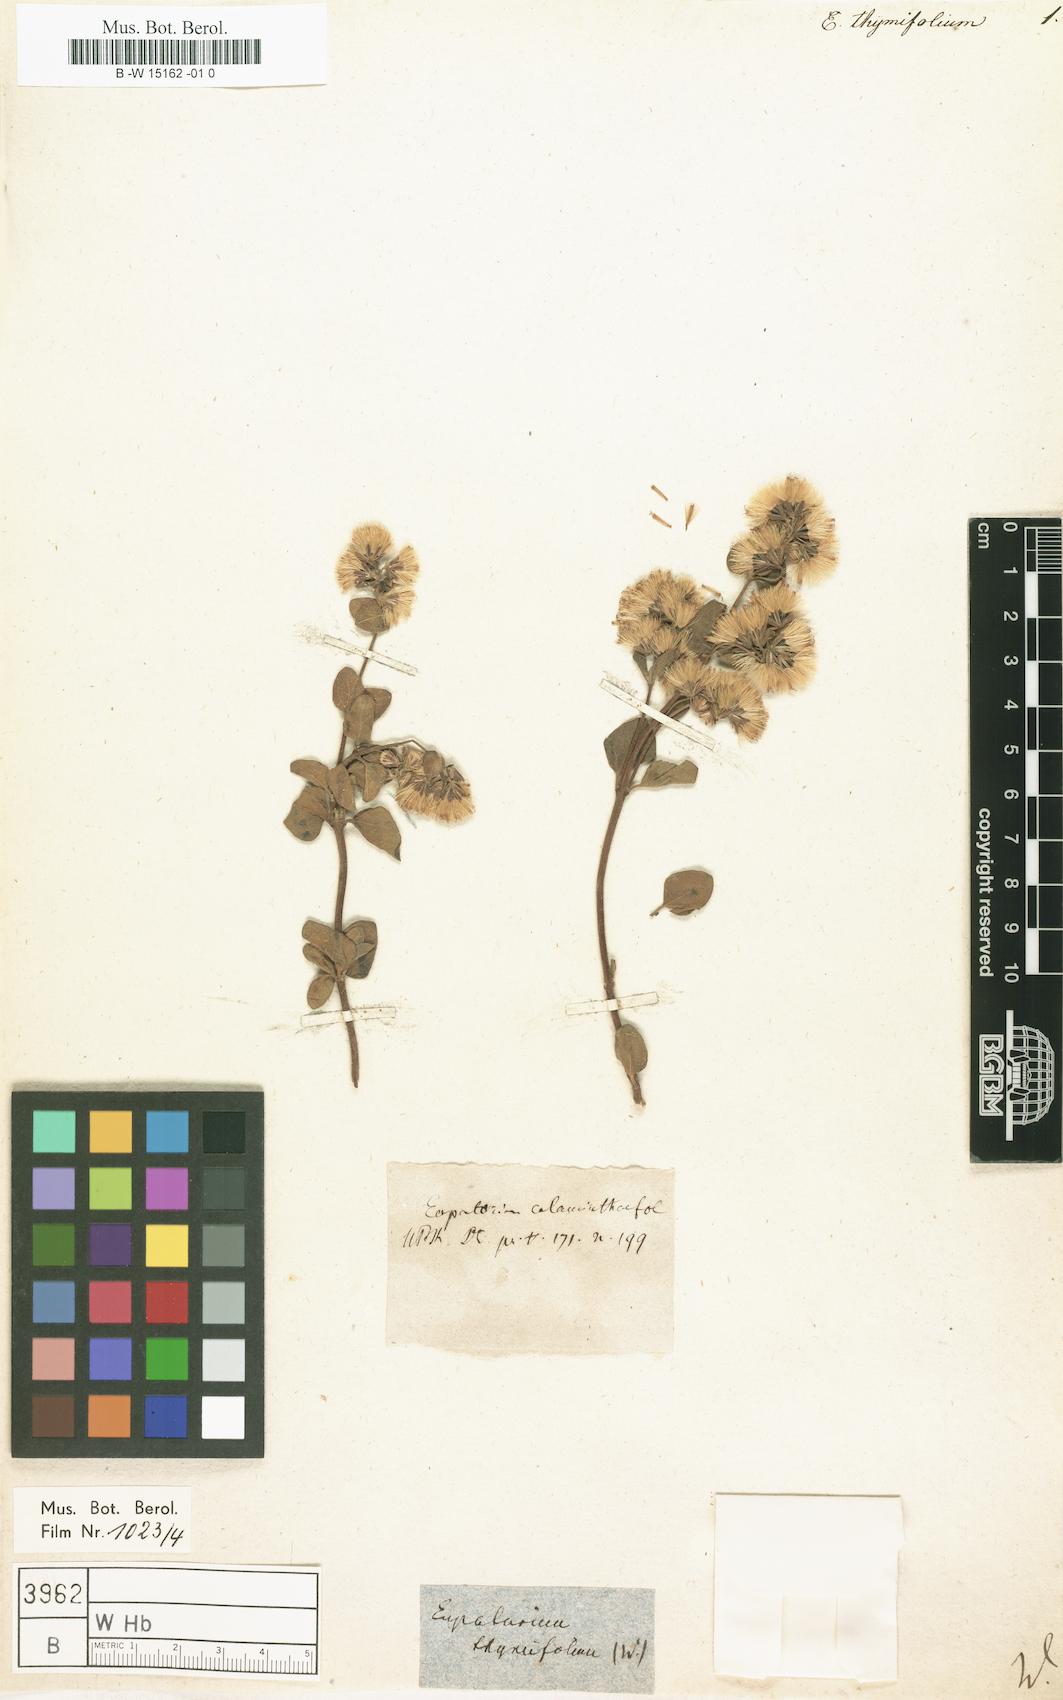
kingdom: Plantae
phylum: Tracheophyta
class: Magnoliopsida
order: Asterales
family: Asteraceae
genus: Neocuatrecasia
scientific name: Neocuatrecasia thymifolia
